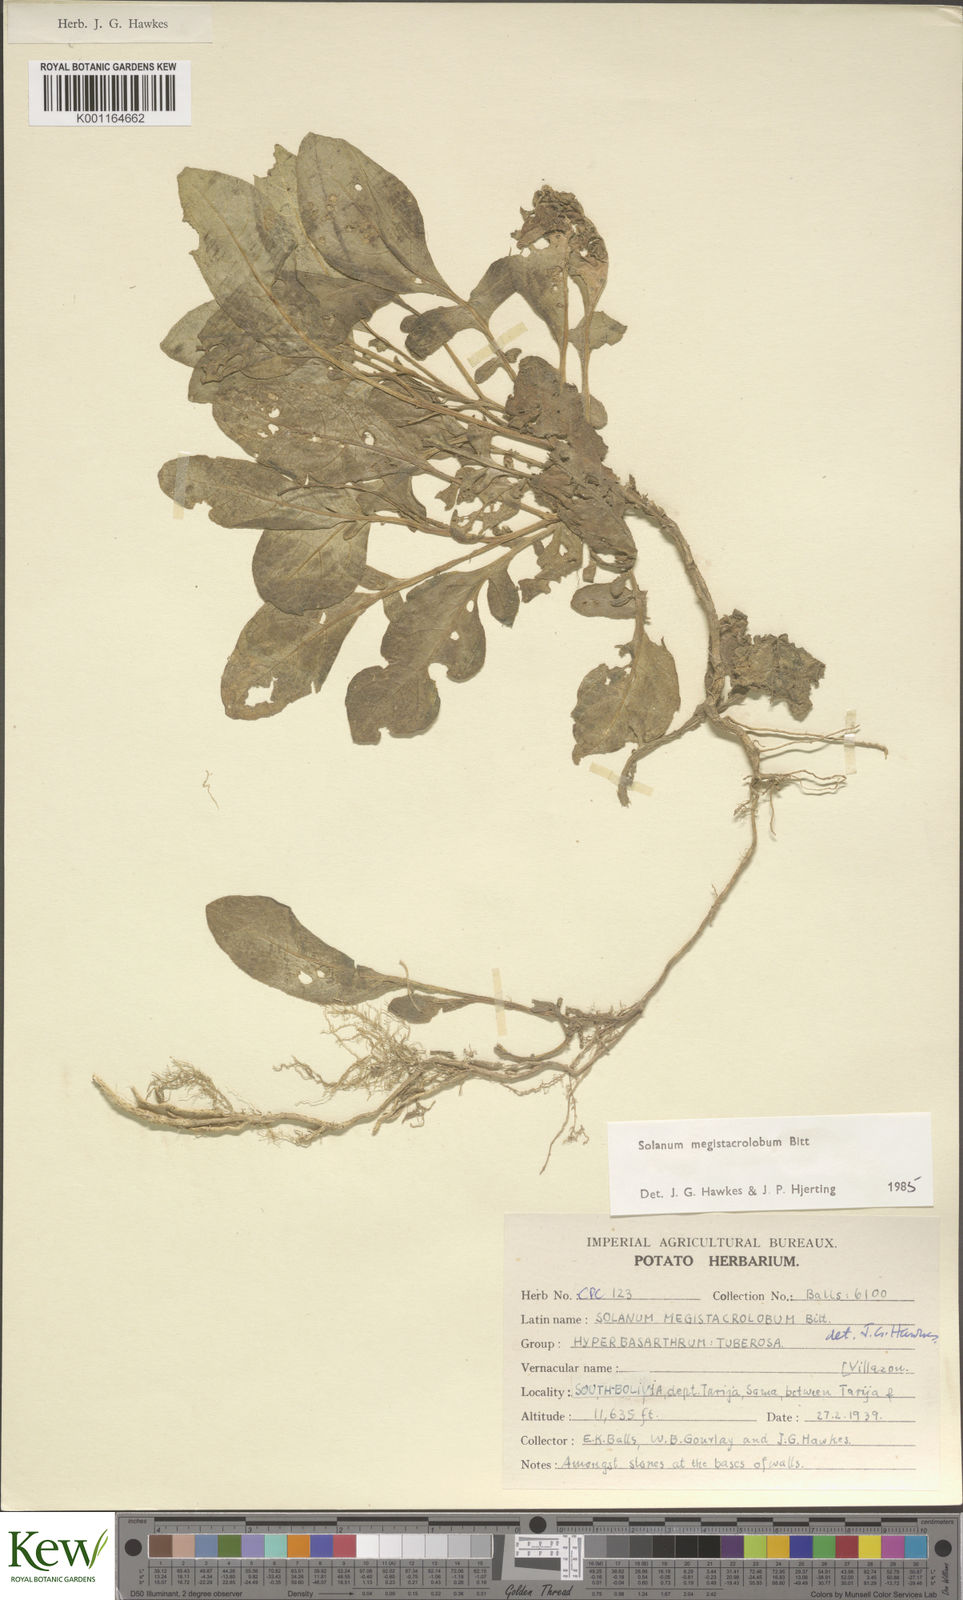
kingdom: Plantae
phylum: Tracheophyta
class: Magnoliopsida
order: Solanales
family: Solanaceae
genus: Solanum
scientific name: Solanum boliviense
